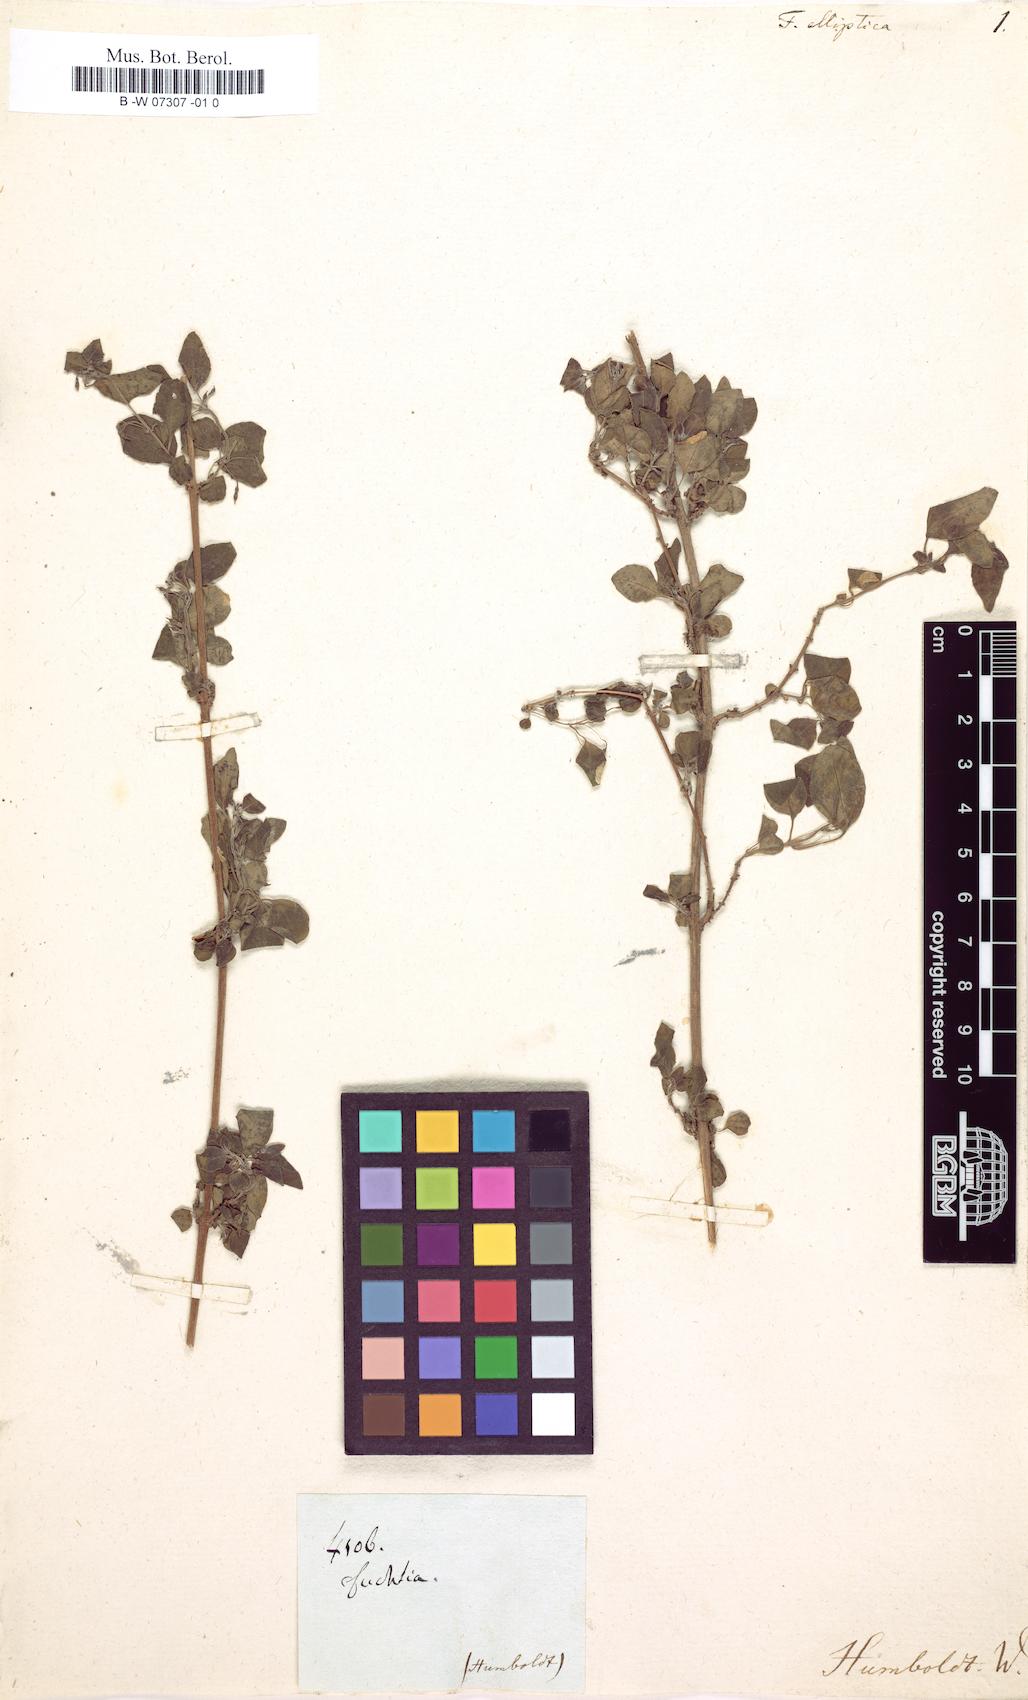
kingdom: Plantae
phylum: Tracheophyta
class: Magnoliopsida
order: Myrtales
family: Onagraceae
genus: Fuchsia
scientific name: Fuchsia
